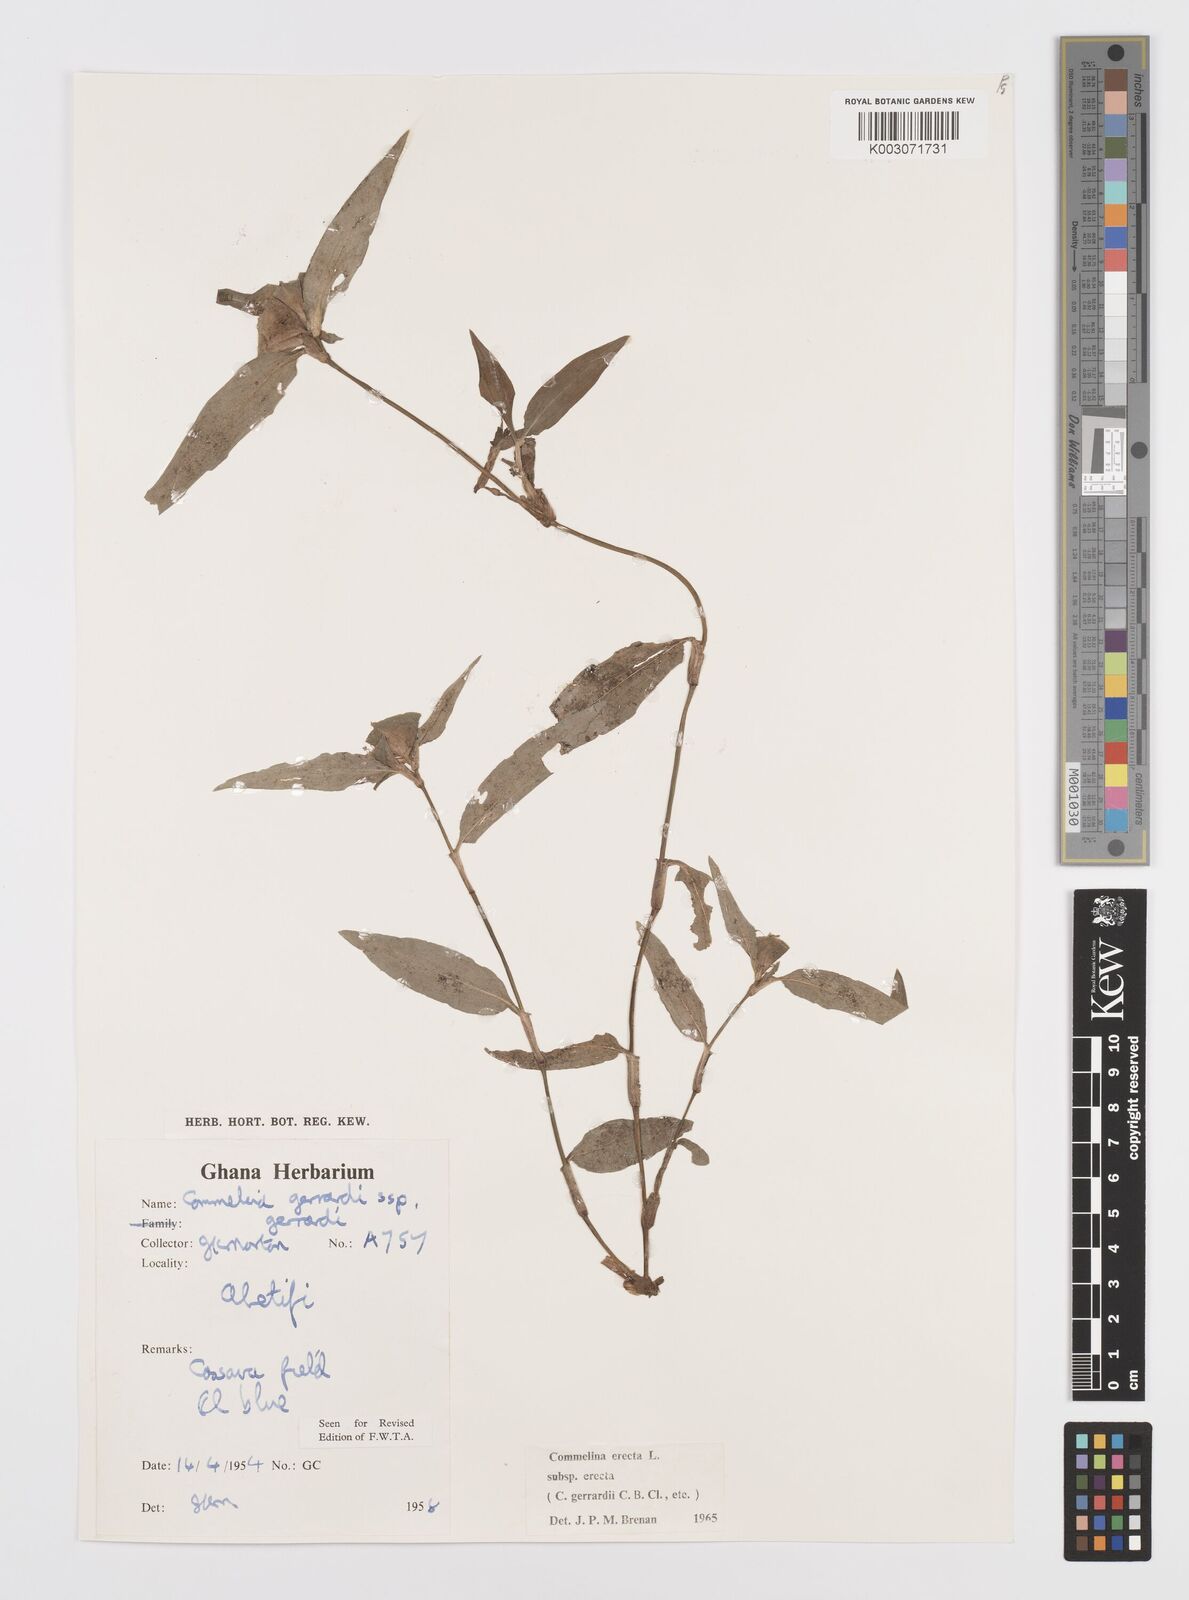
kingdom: Plantae
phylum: Tracheophyta
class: Liliopsida
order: Commelinales
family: Commelinaceae
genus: Commelina
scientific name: Commelina erecta
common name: Blousel blommetjie
